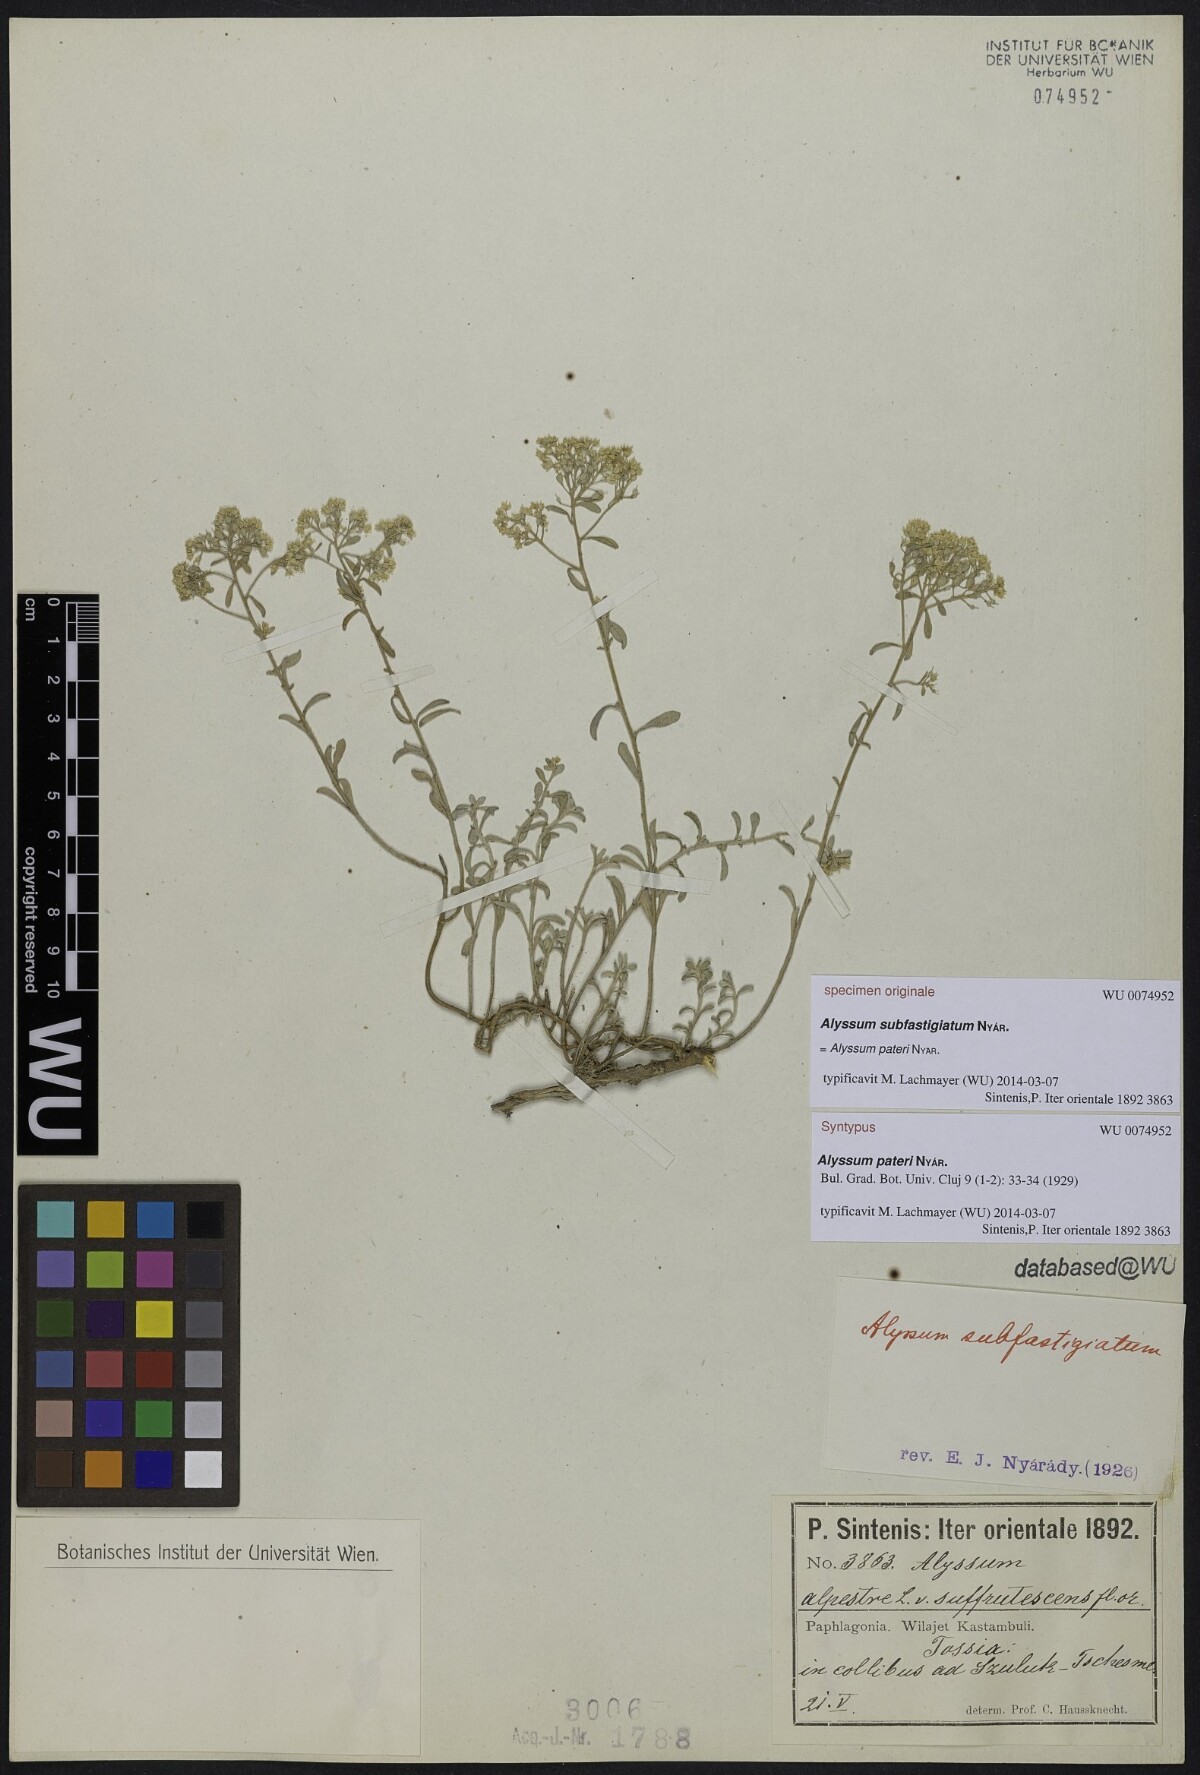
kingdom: Plantae
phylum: Tracheophyta
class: Magnoliopsida
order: Brassicales
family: Brassicaceae
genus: Odontarrhena
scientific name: Odontarrhena pateri
